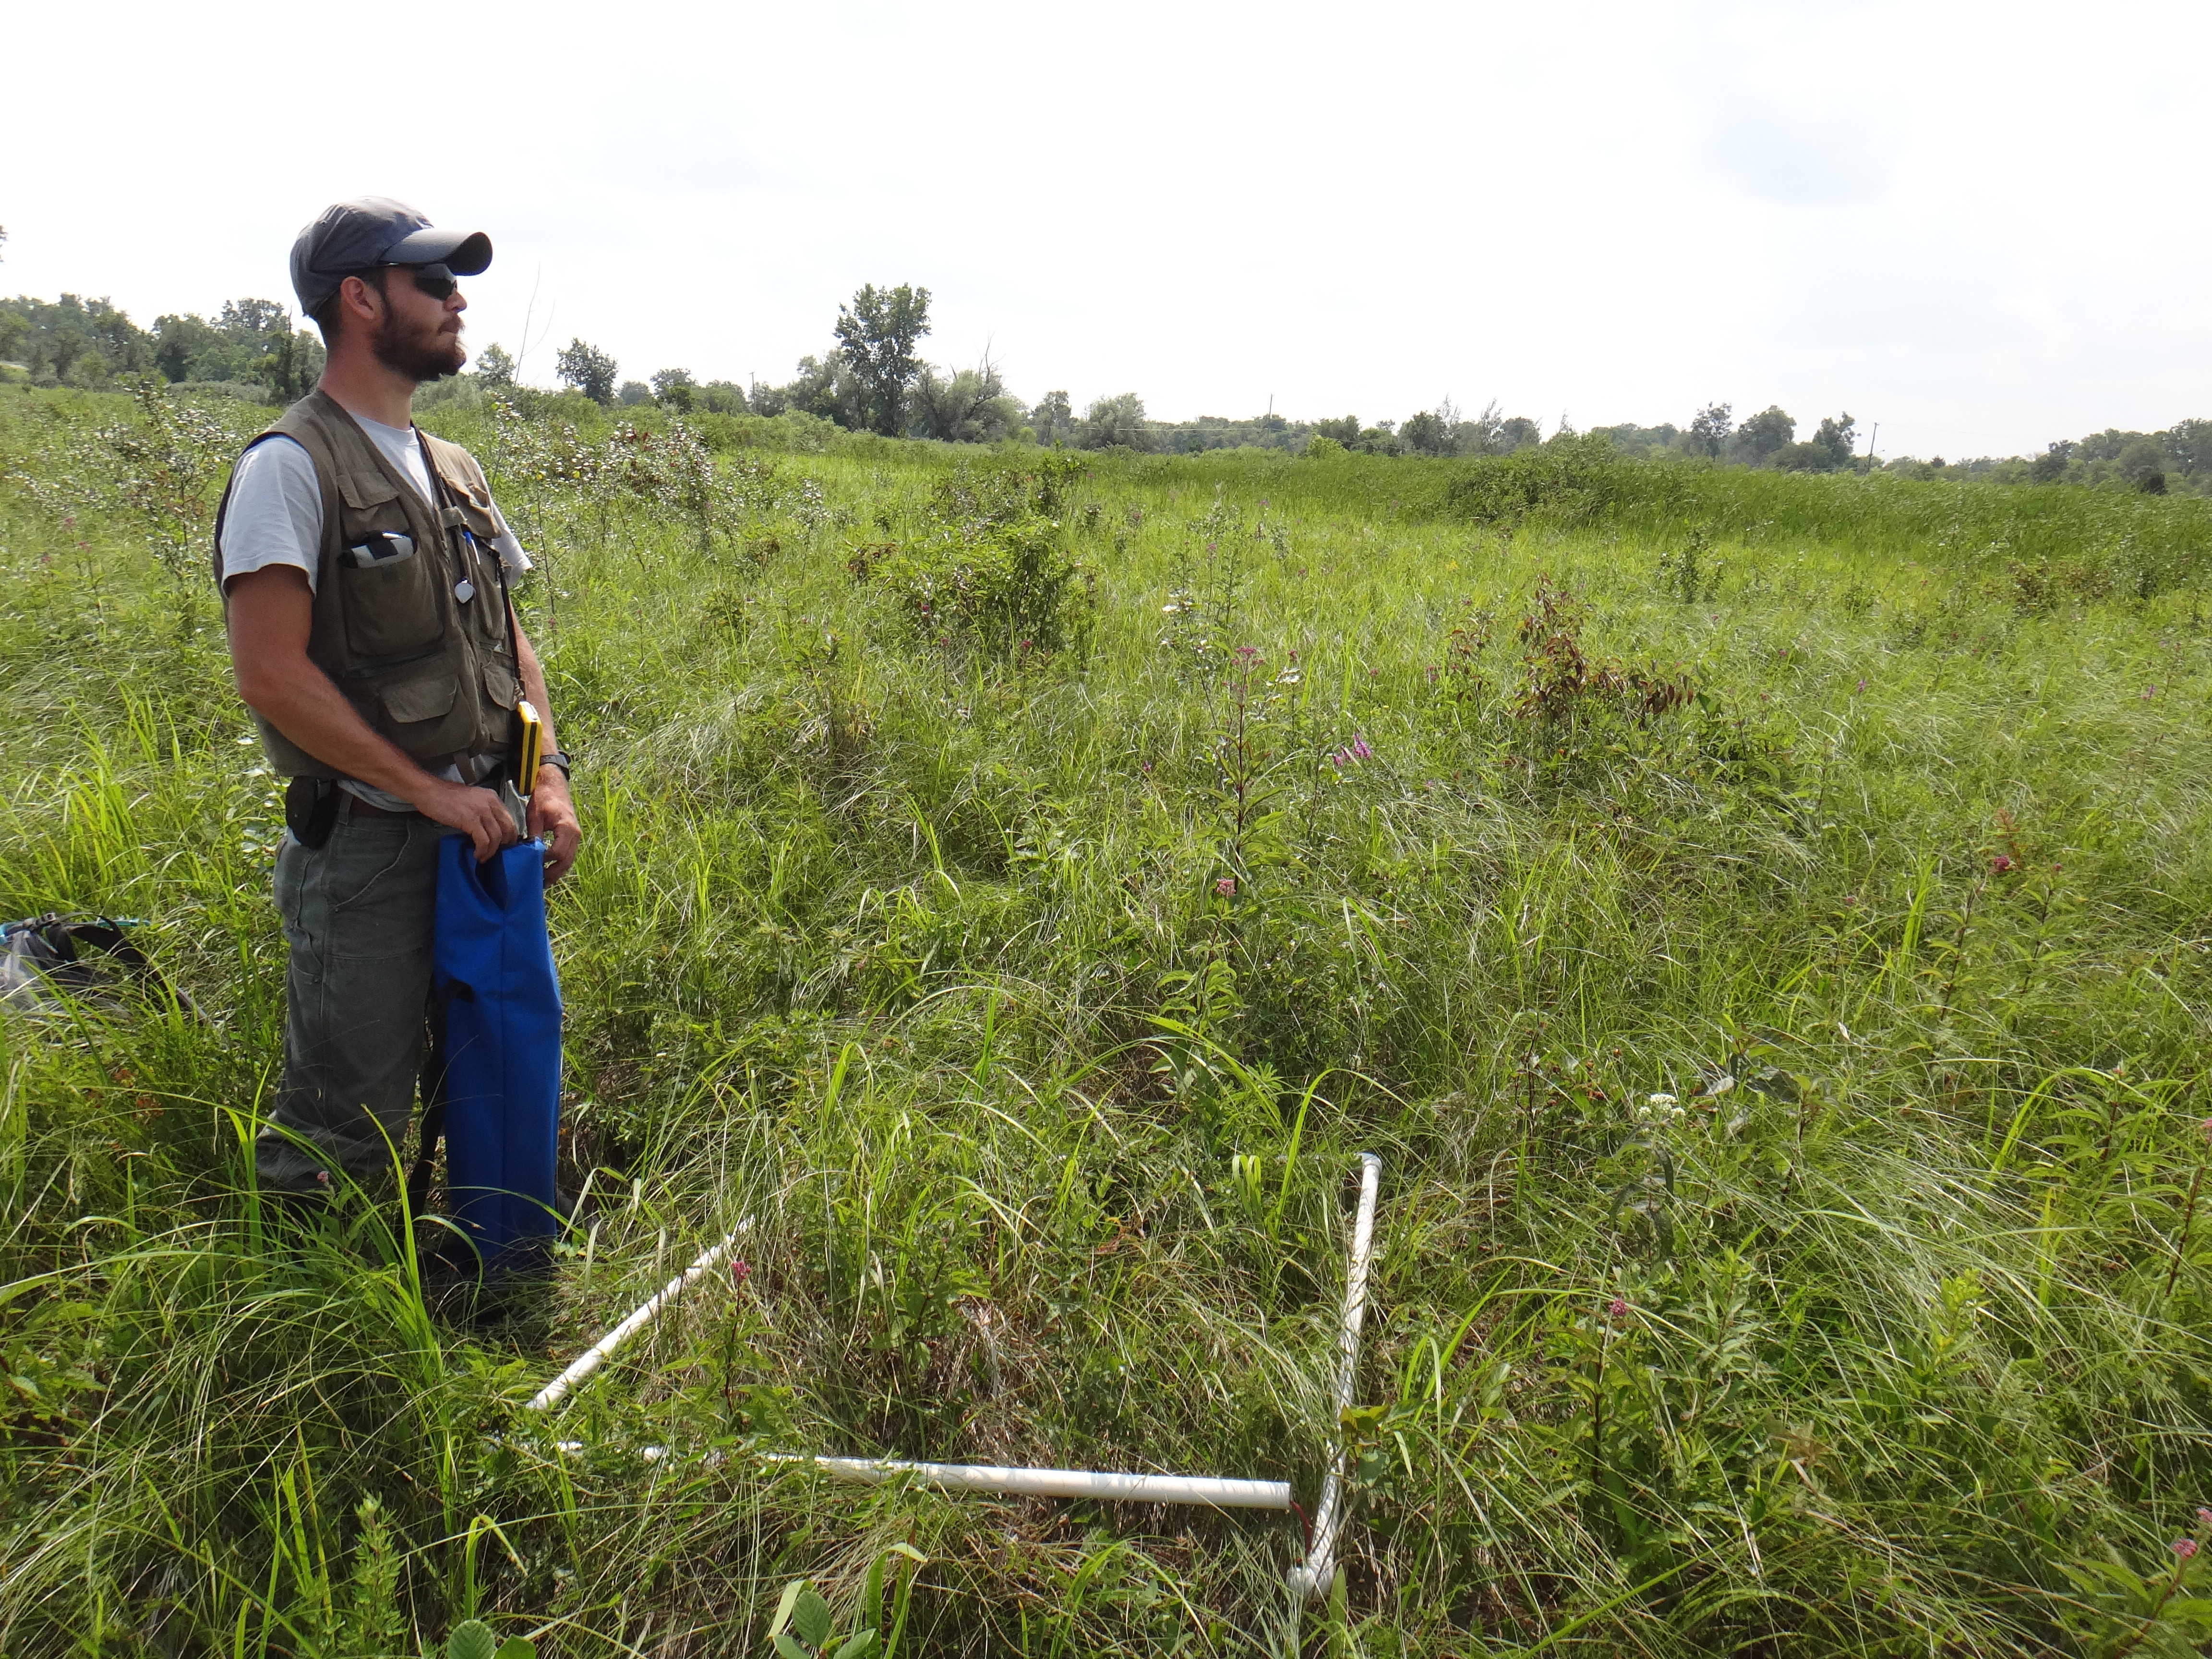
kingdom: Plantae
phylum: Tracheophyta
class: Magnoliopsida
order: Asterales
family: Asteraceae
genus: Symphyotrichum
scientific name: Symphyotrichum
